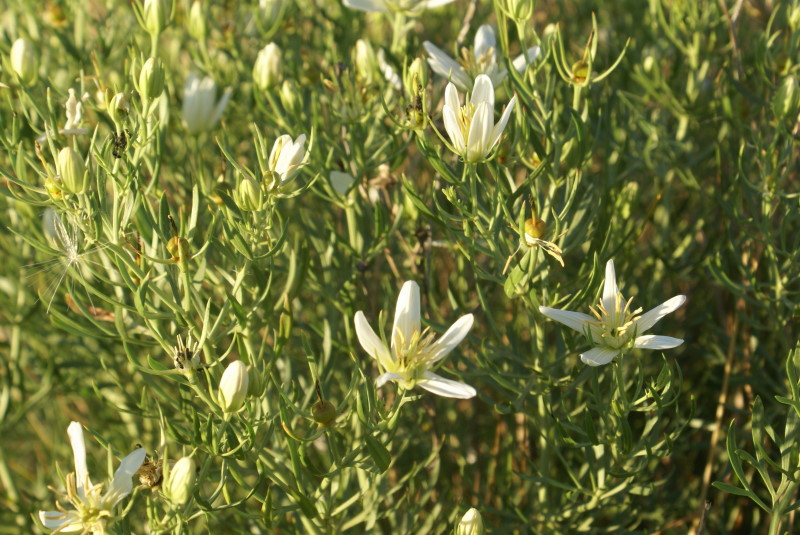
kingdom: Plantae
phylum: Tracheophyta
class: Magnoliopsida
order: Sapindales
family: Tetradiclidaceae
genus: Peganum
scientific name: Peganum harmala
